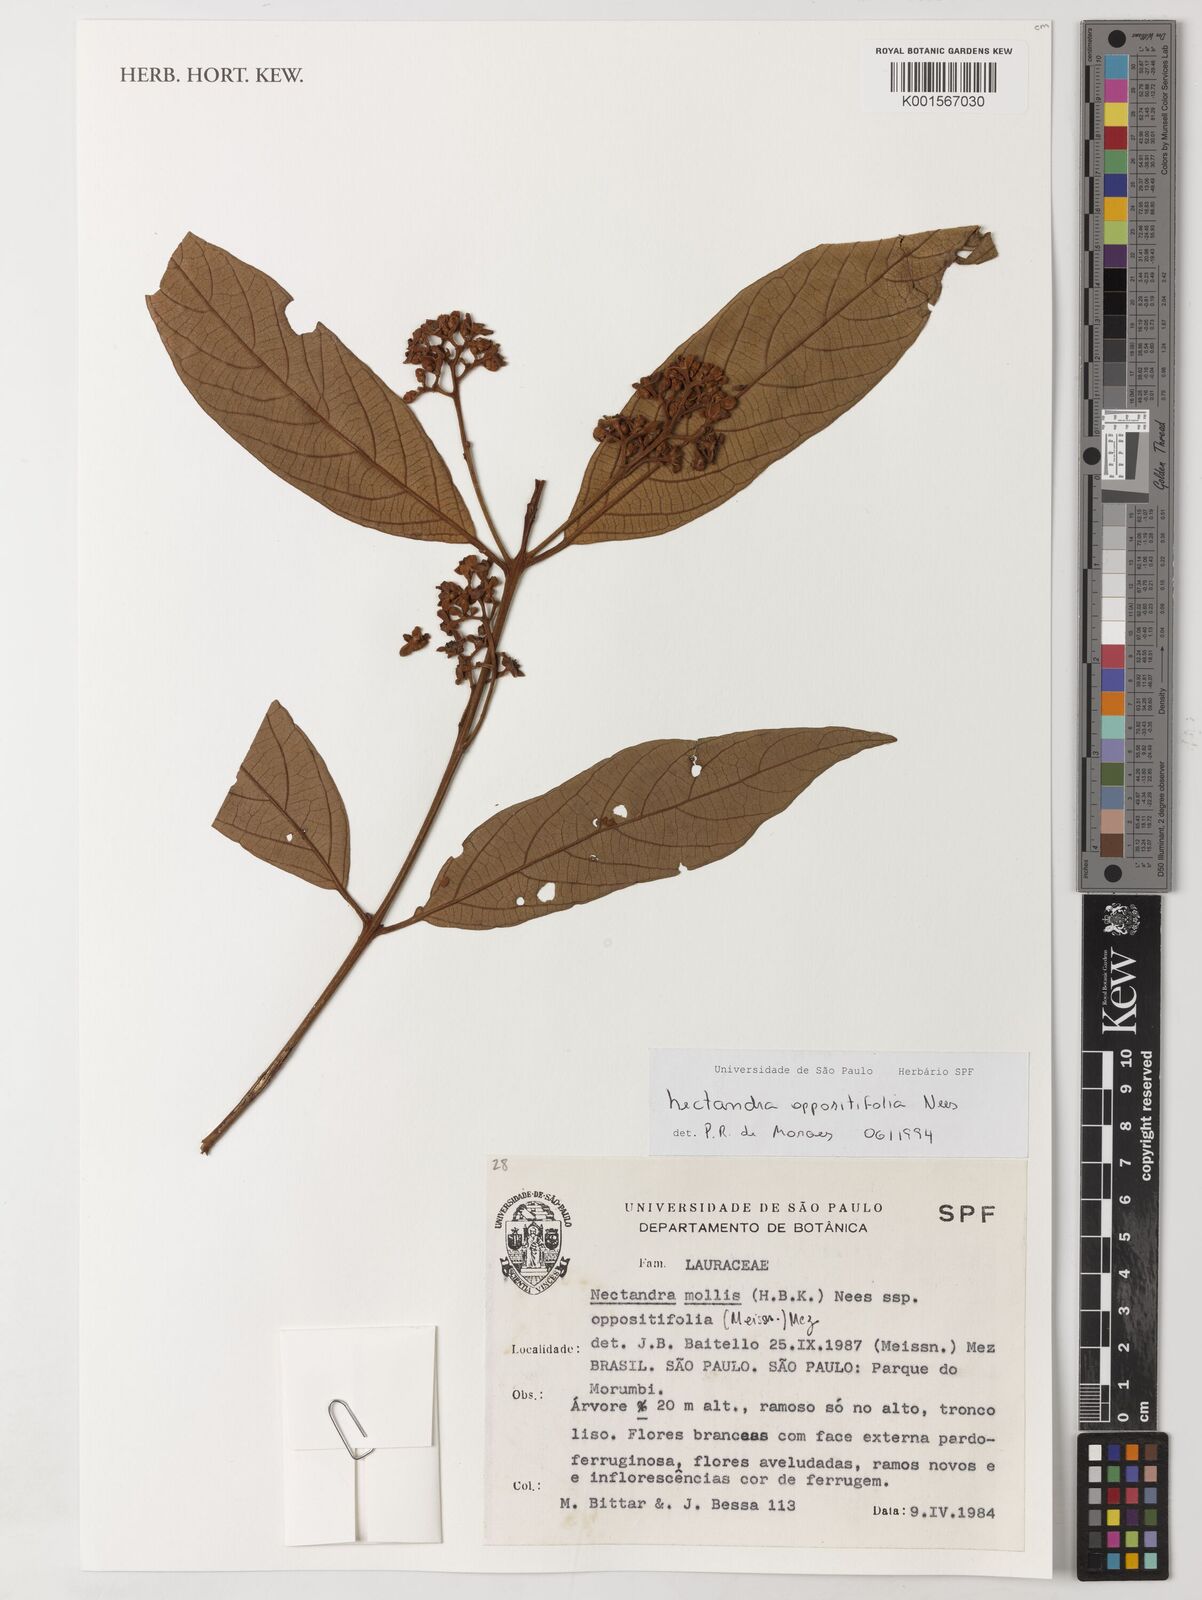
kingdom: Plantae
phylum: Tracheophyta
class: Magnoliopsida
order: Laurales
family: Lauraceae
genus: Nectandra
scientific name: Nectandra oppositifolia
